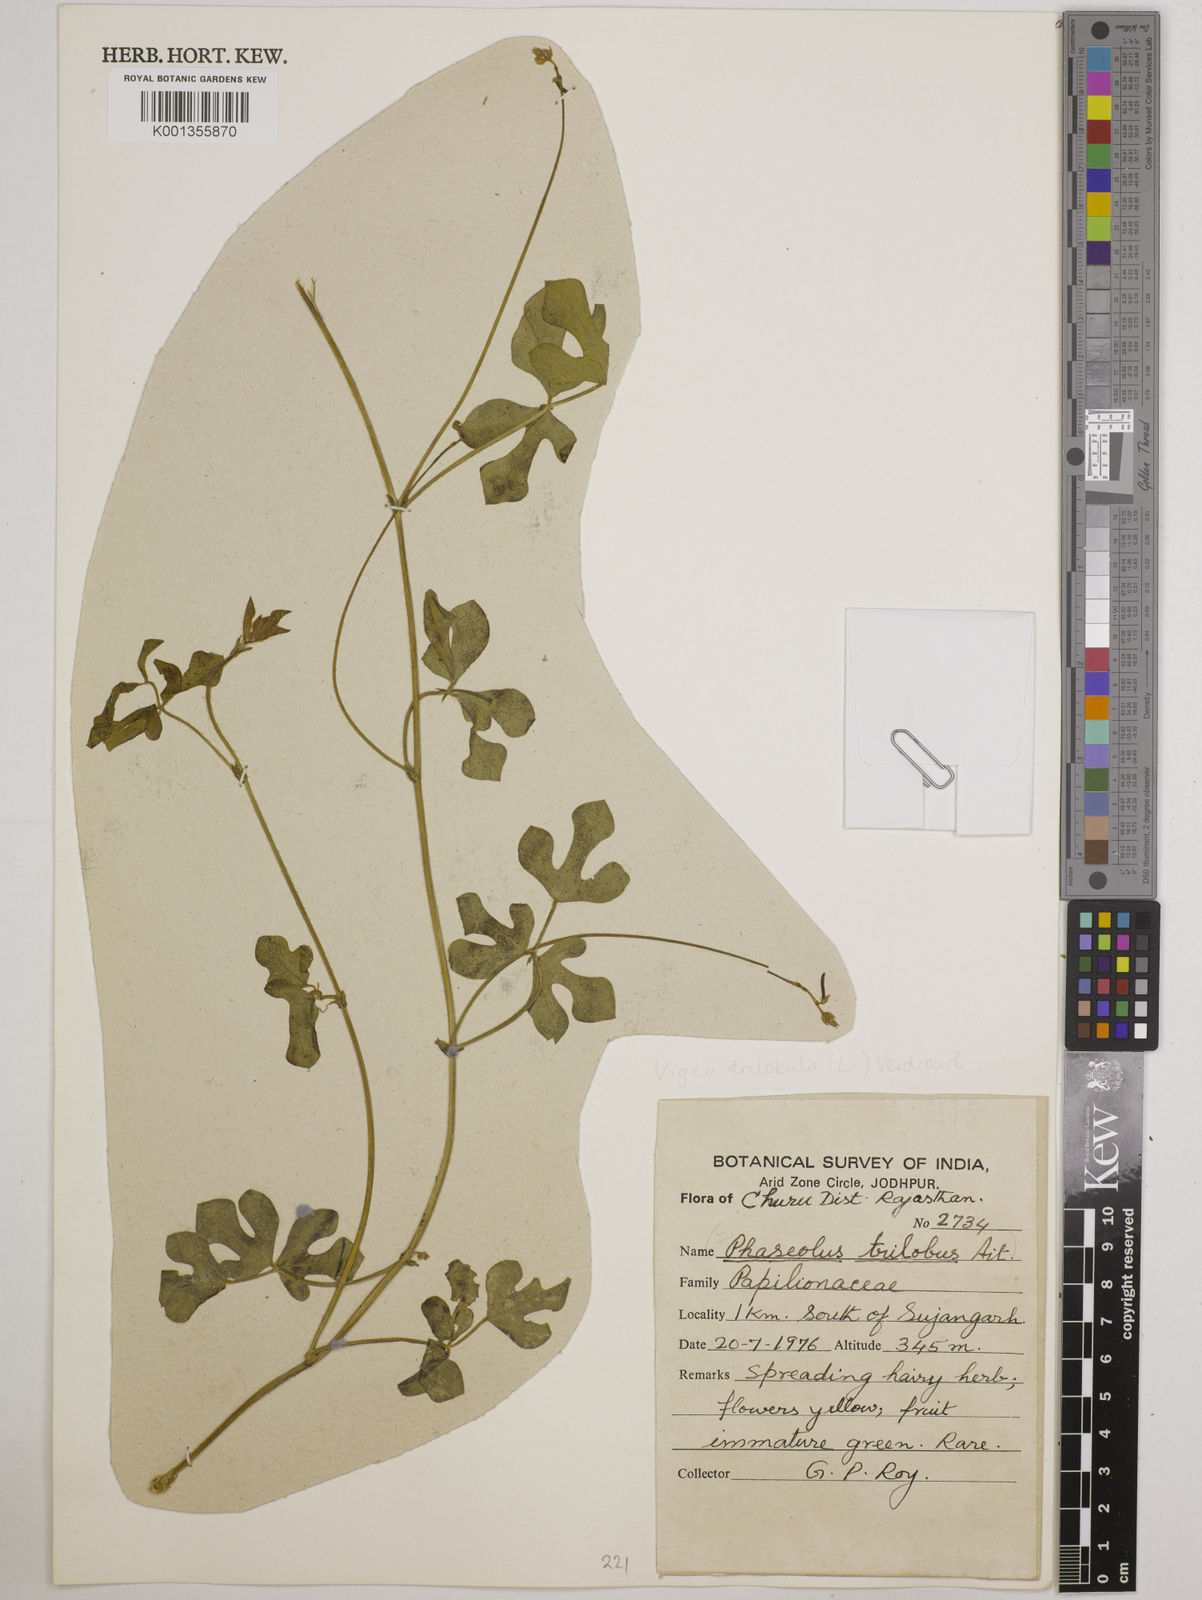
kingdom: Plantae
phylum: Tracheophyta
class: Magnoliopsida
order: Fabales
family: Fabaceae
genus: Vigna
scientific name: Vigna trilobata
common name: Jungli-bean
